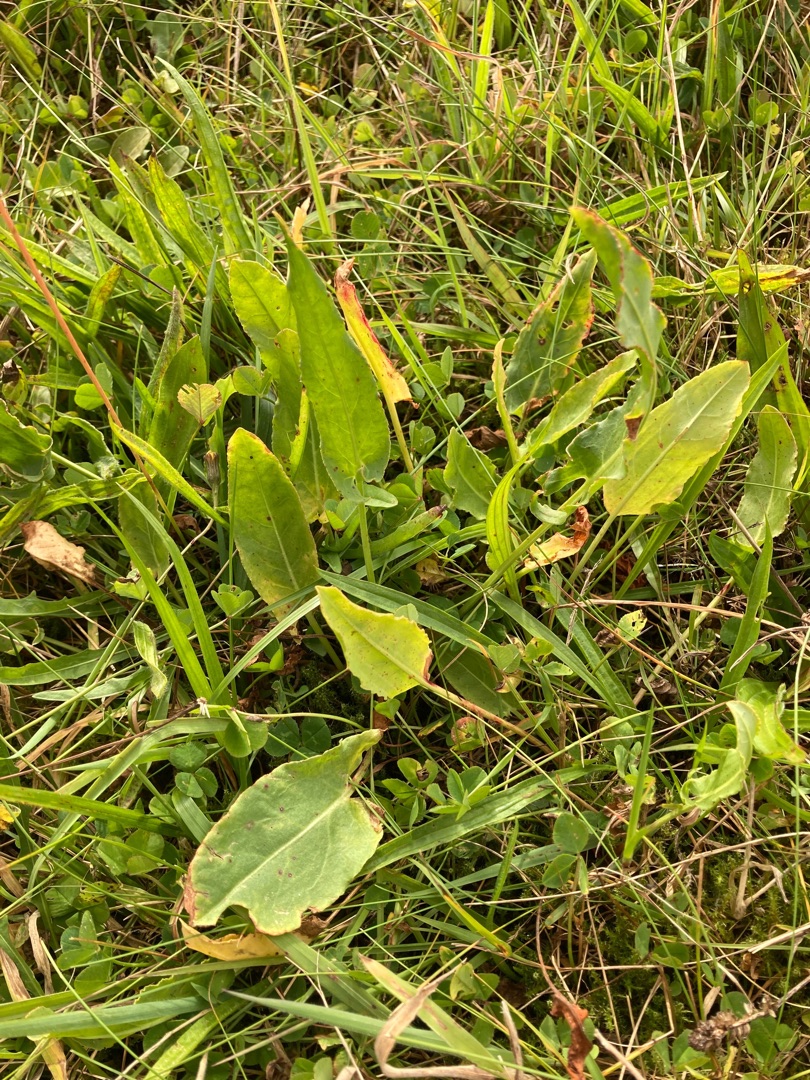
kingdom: Plantae
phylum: Tracheophyta
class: Magnoliopsida
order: Caryophyllales
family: Polygonaceae
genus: Rumex
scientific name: Rumex acetosa
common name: Almindelig syre
